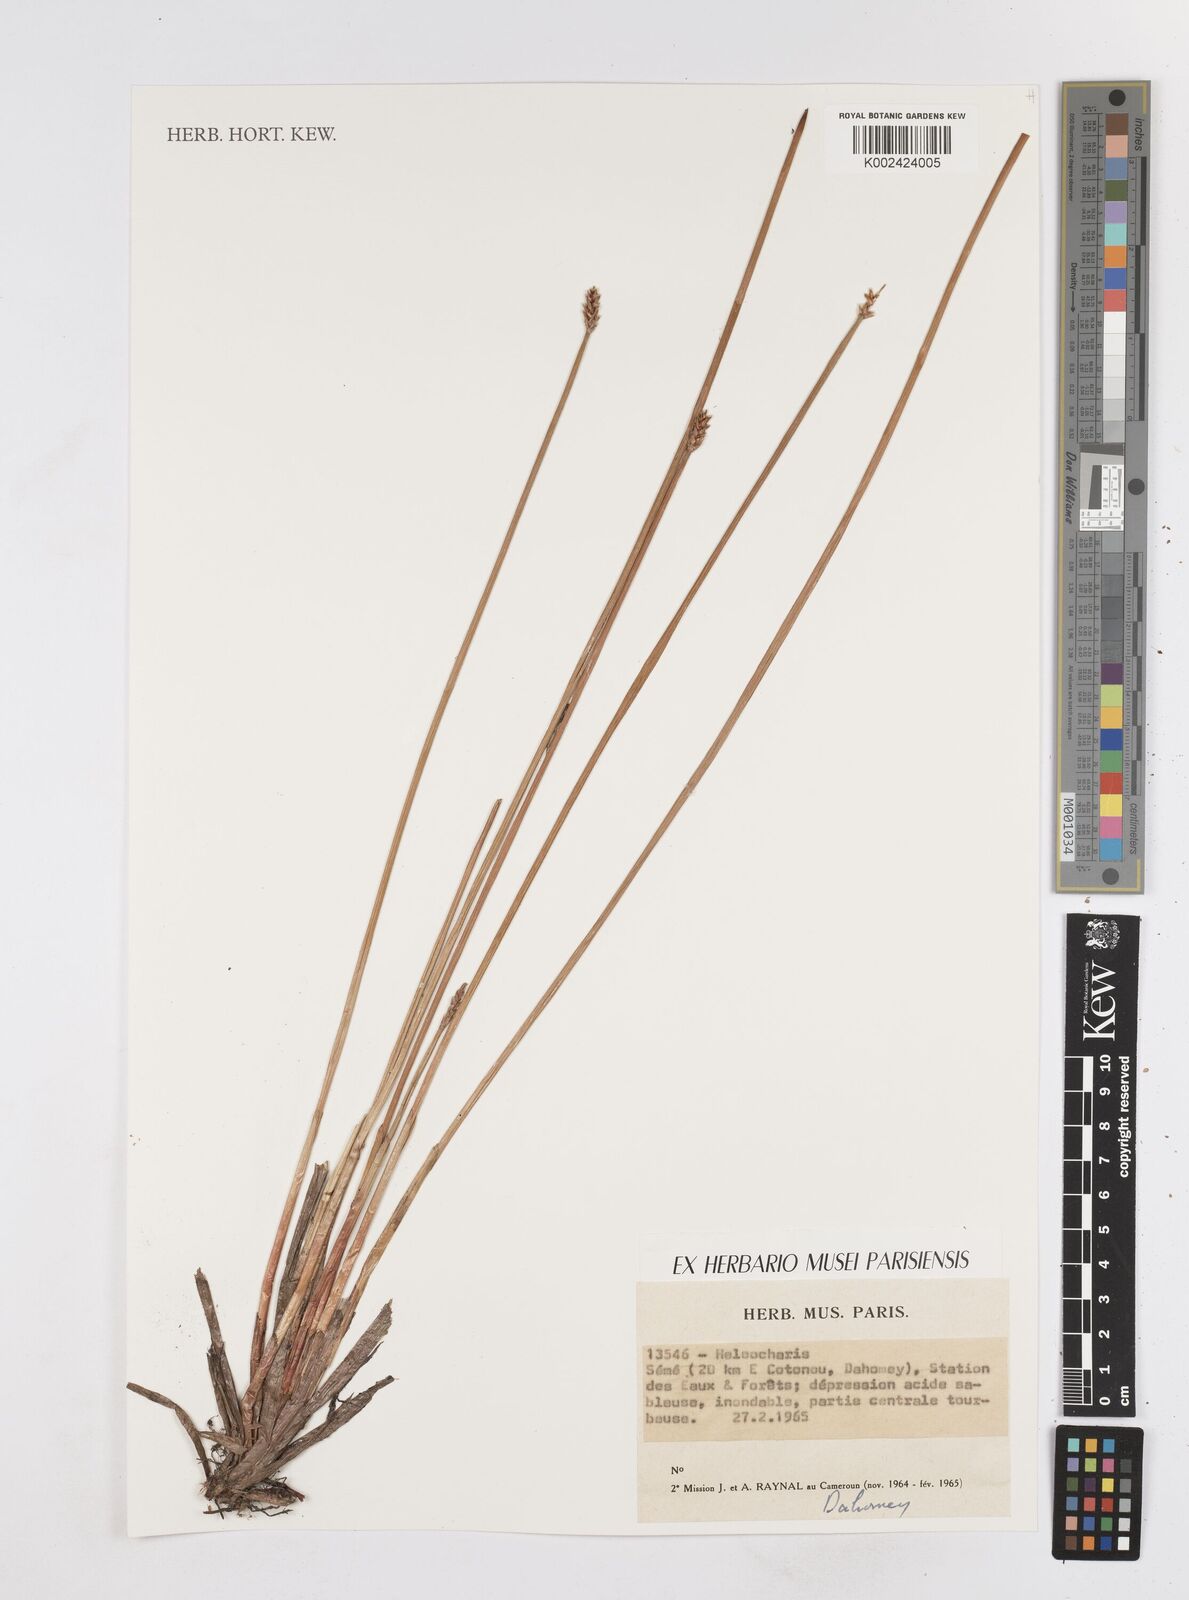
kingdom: Plantae
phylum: Tracheophyta
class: Liliopsida
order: Poales
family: Cyperaceae
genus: Eleocharis
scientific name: Eleocharis
